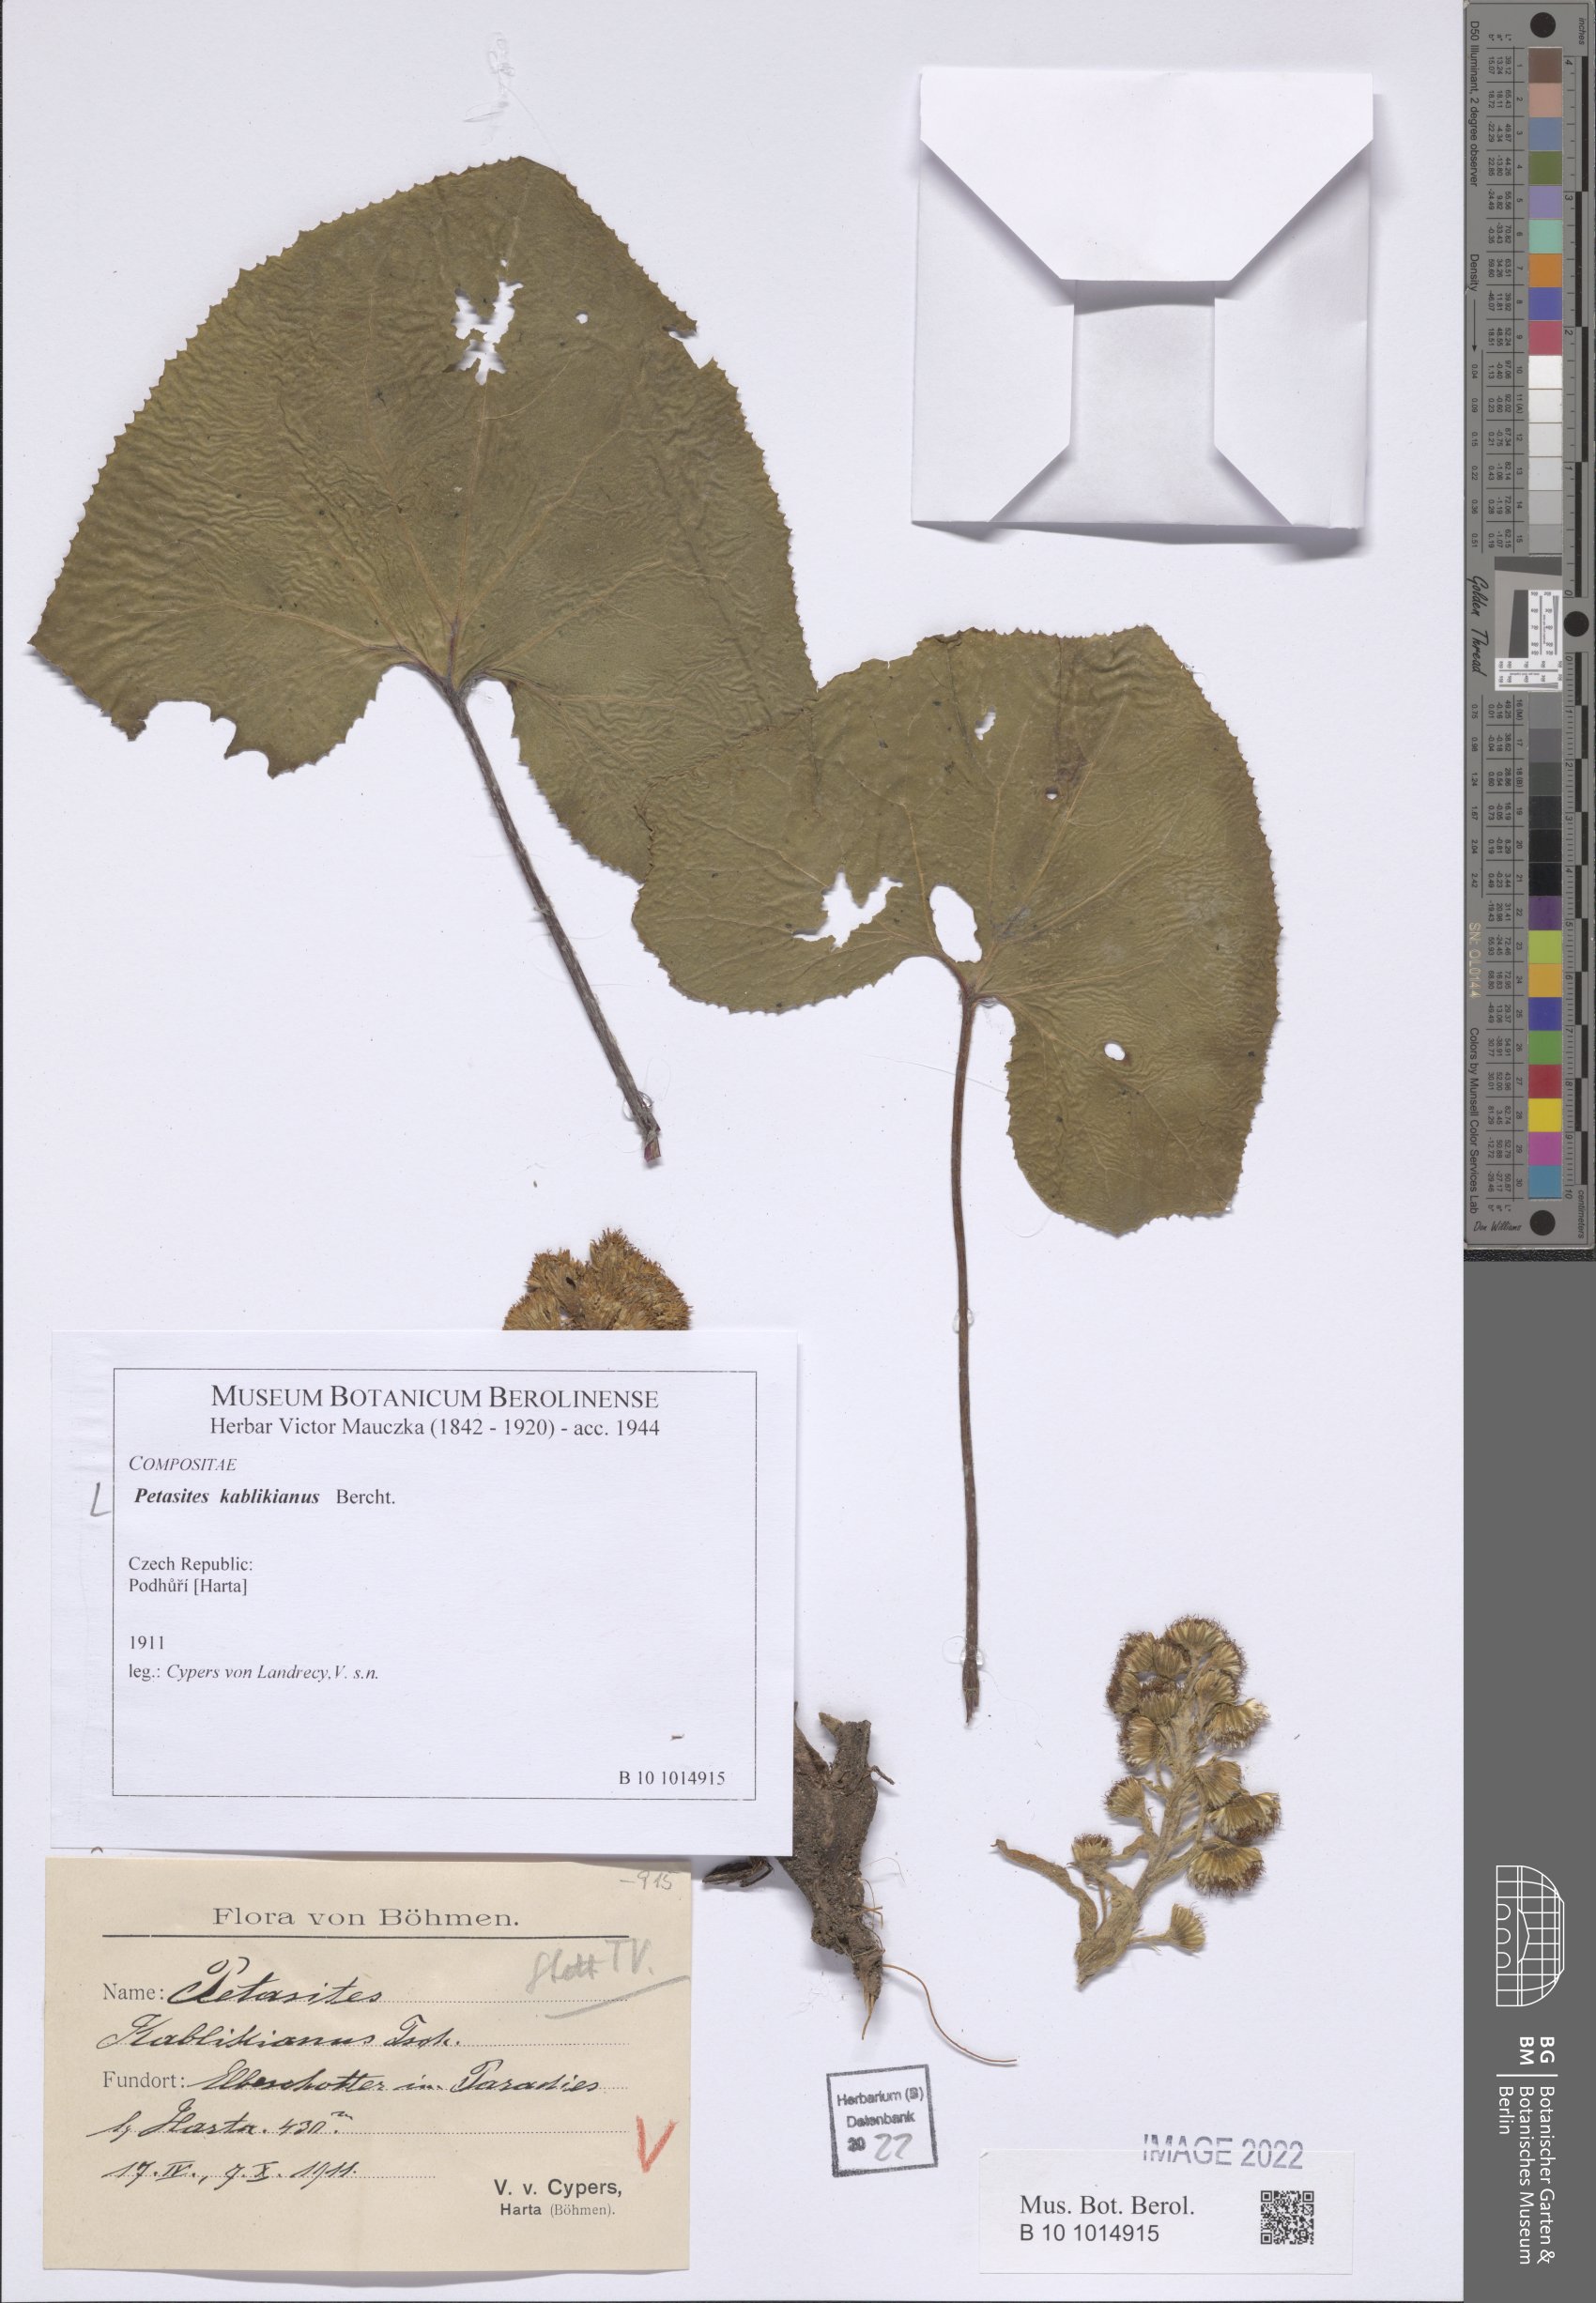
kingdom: Plantae
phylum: Tracheophyta
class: Magnoliopsida
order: Asterales
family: Asteraceae
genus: Petasites
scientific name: Petasites kablikianus
